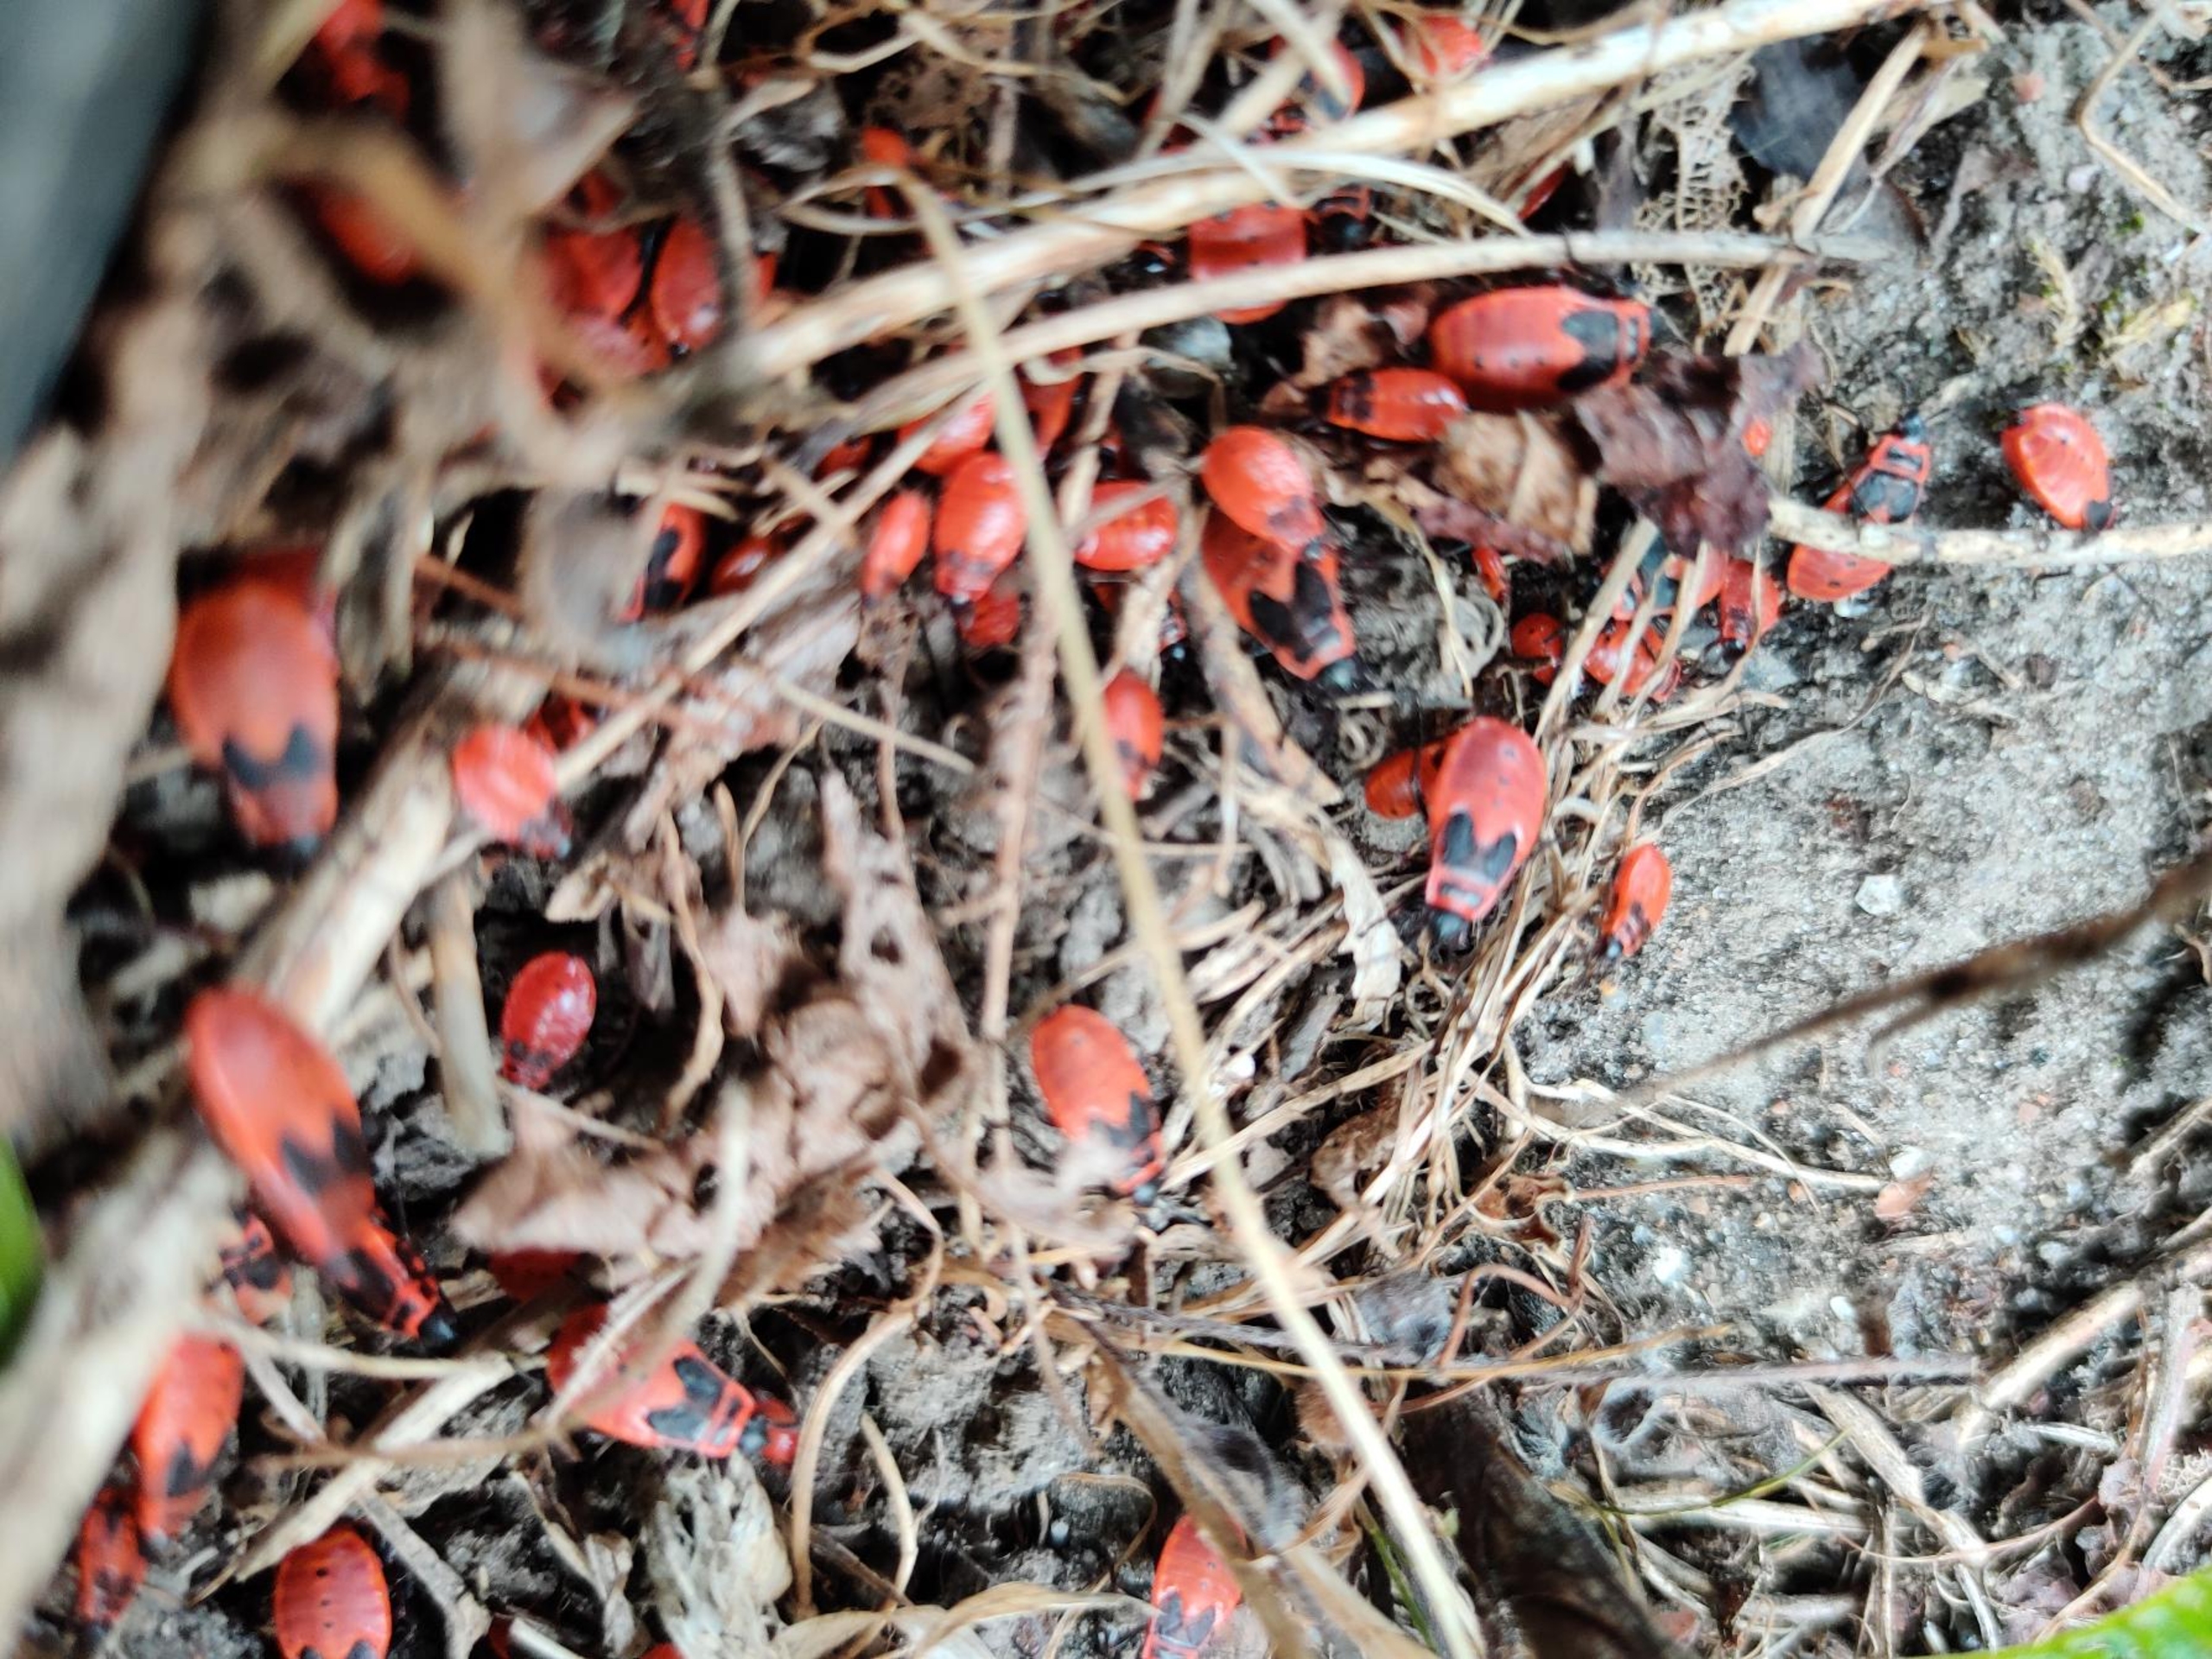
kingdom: Animalia
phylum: Arthropoda
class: Insecta
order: Hemiptera
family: Pyrrhocoridae
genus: Pyrrhocoris
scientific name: Pyrrhocoris apterus
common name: Ildtæge
